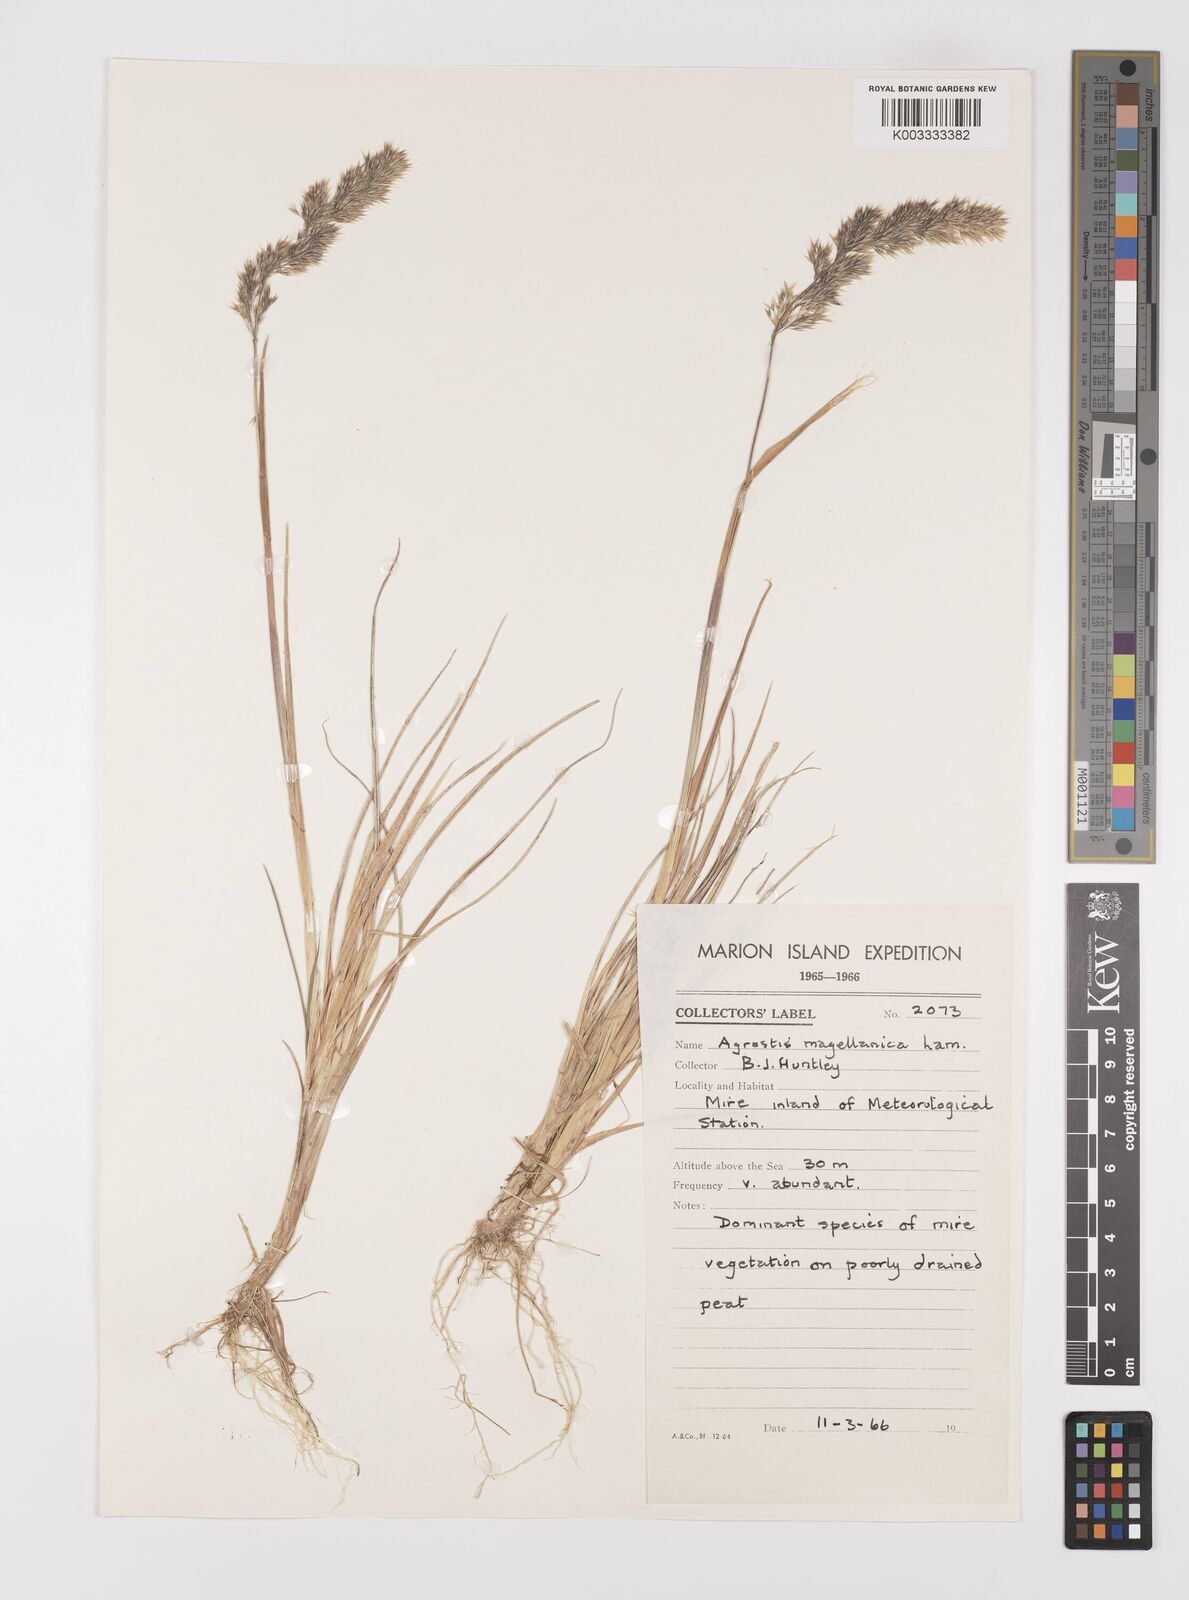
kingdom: Plantae
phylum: Tracheophyta
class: Liliopsida
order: Poales
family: Poaceae
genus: Polypogon
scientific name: Polypogon magellanicus
